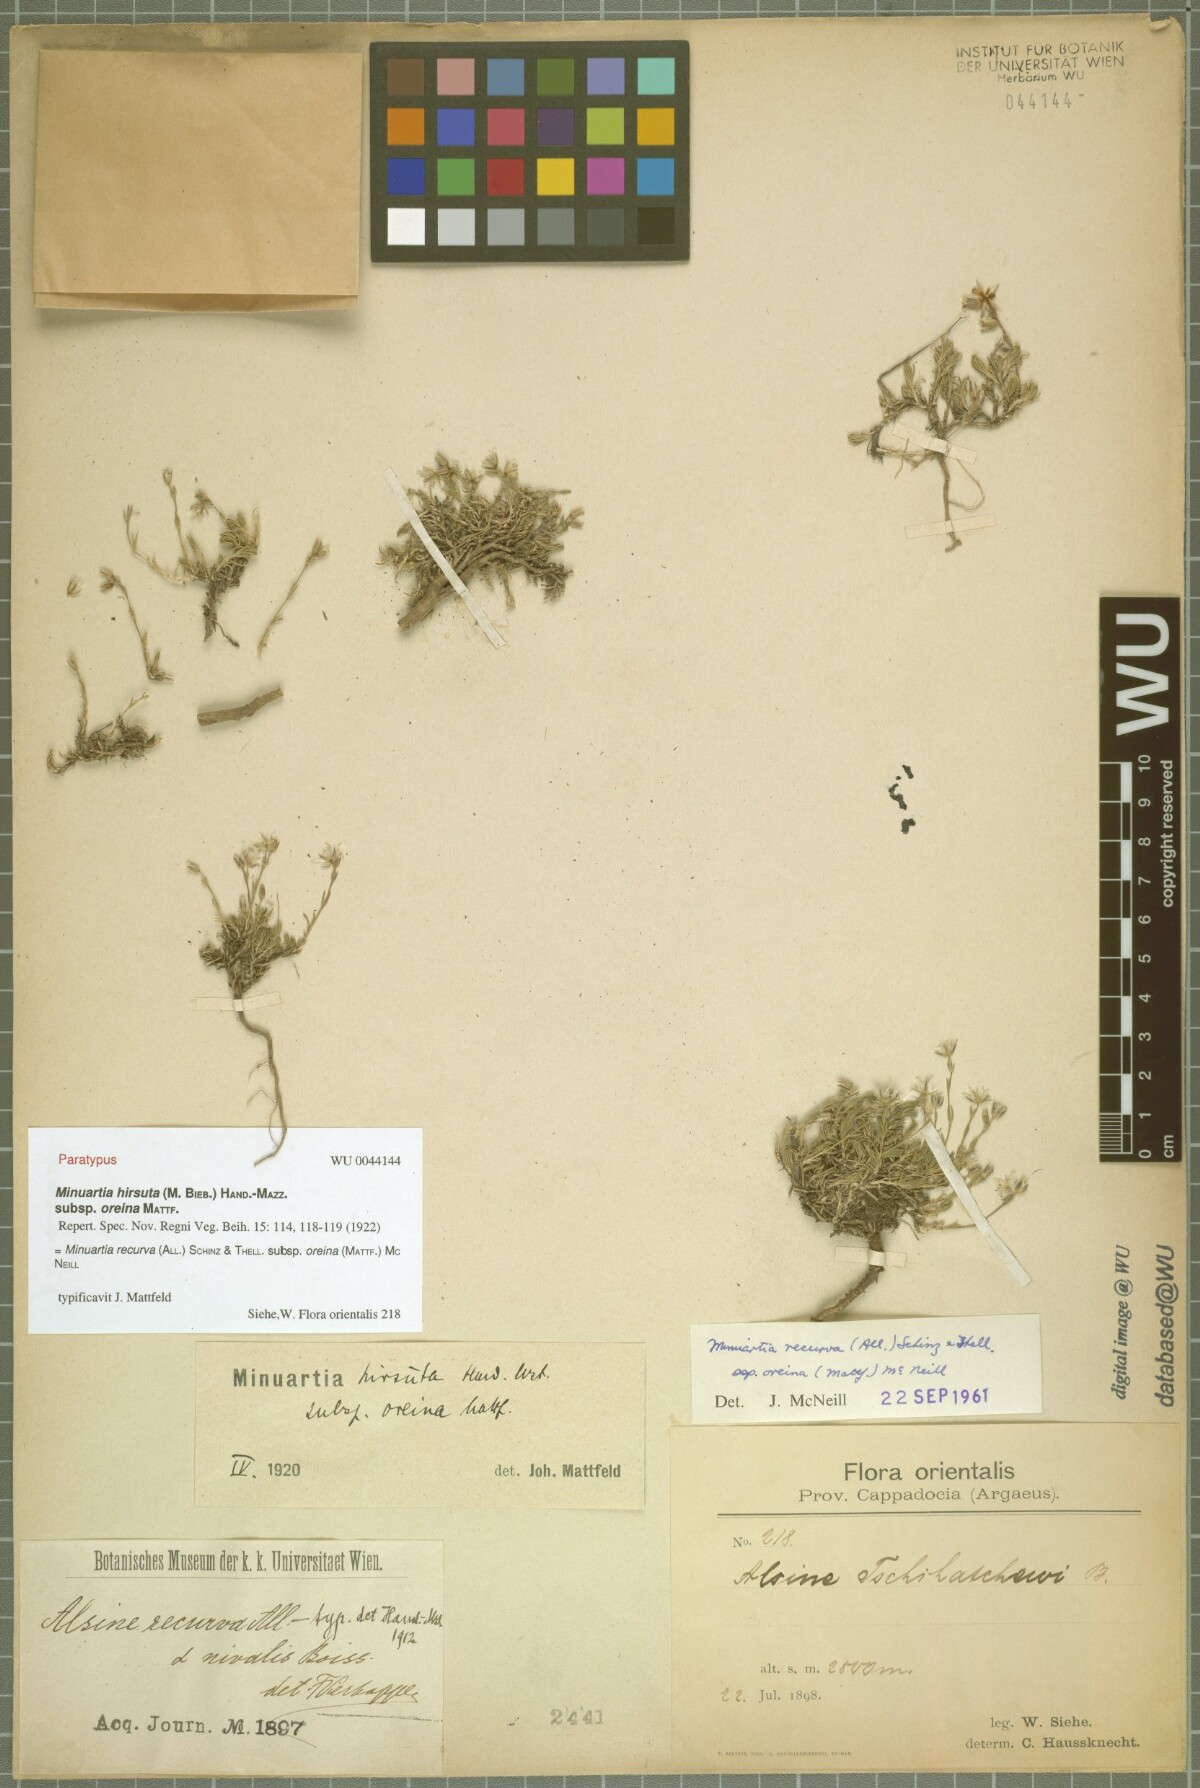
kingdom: Plantae
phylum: Tracheophyta
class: Magnoliopsida
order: Caryophyllales
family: Caryophyllaceae
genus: Minuartia
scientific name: Minuartia hirsuta
